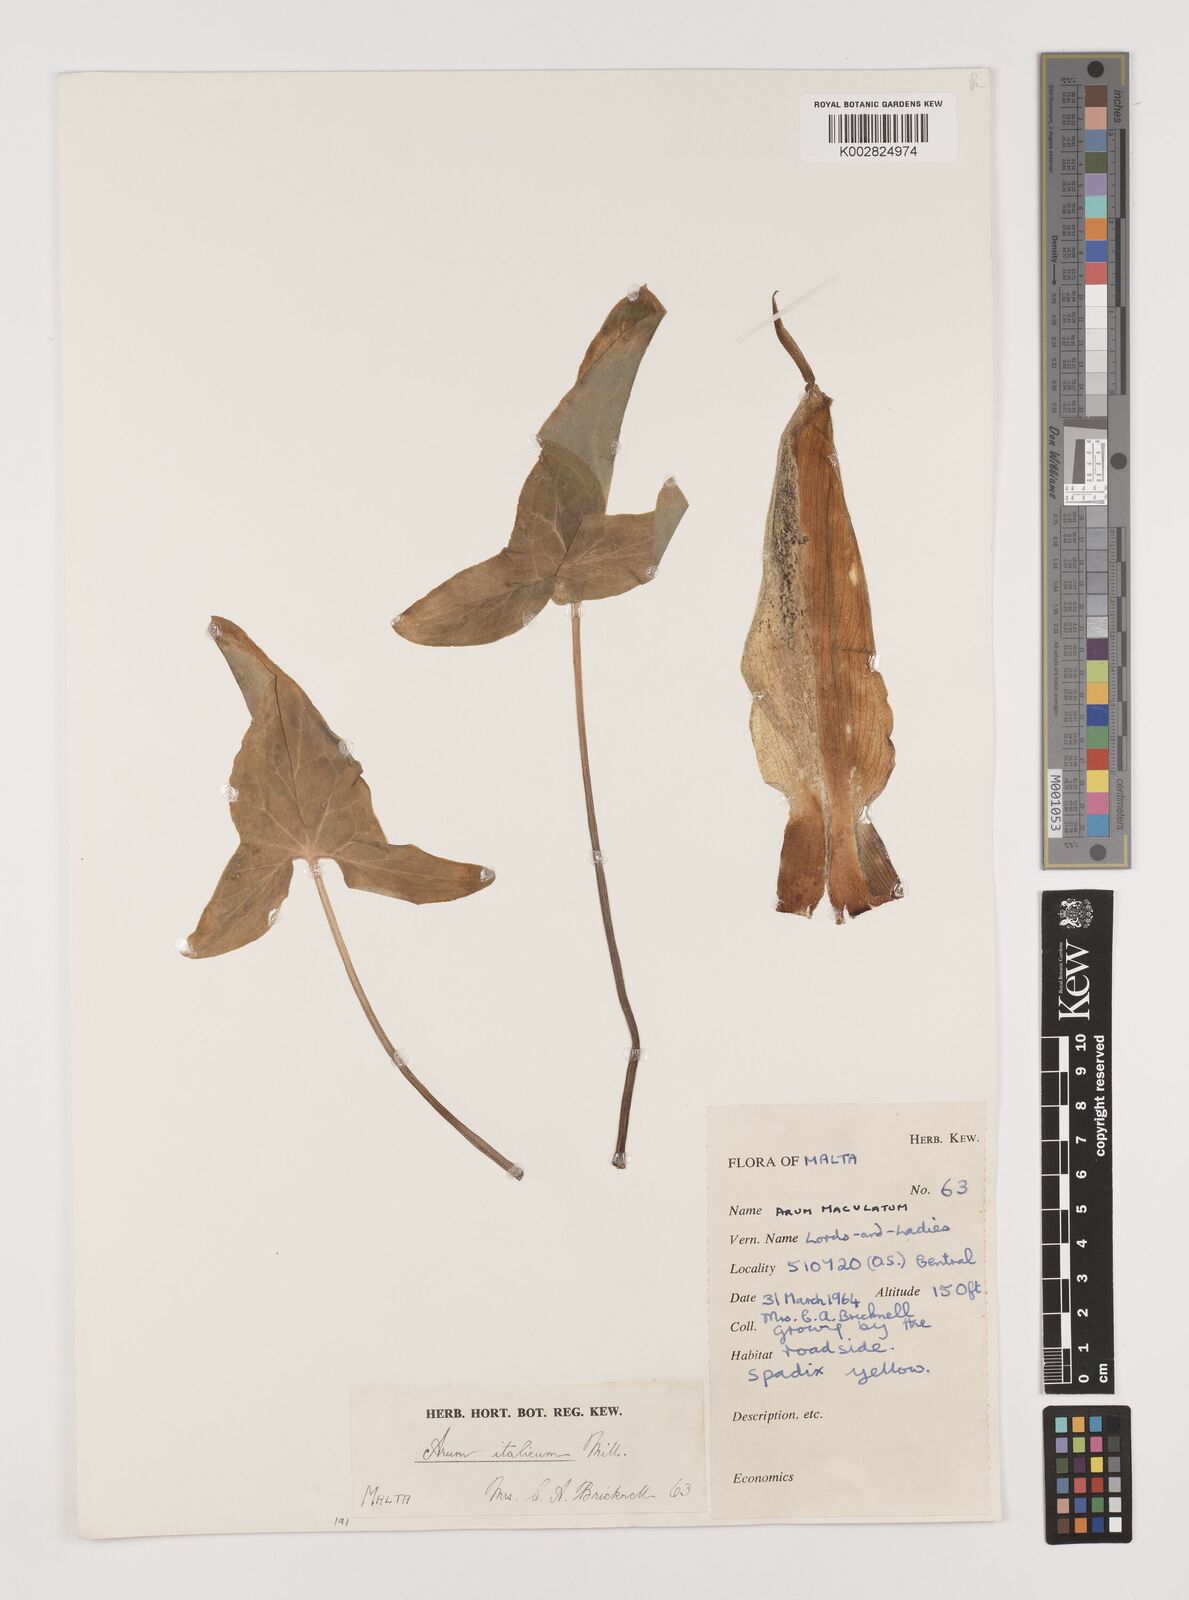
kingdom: Plantae
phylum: Tracheophyta
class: Liliopsida
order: Alismatales
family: Araceae
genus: Arum
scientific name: Arum italicum
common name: Italian lords-and-ladies
